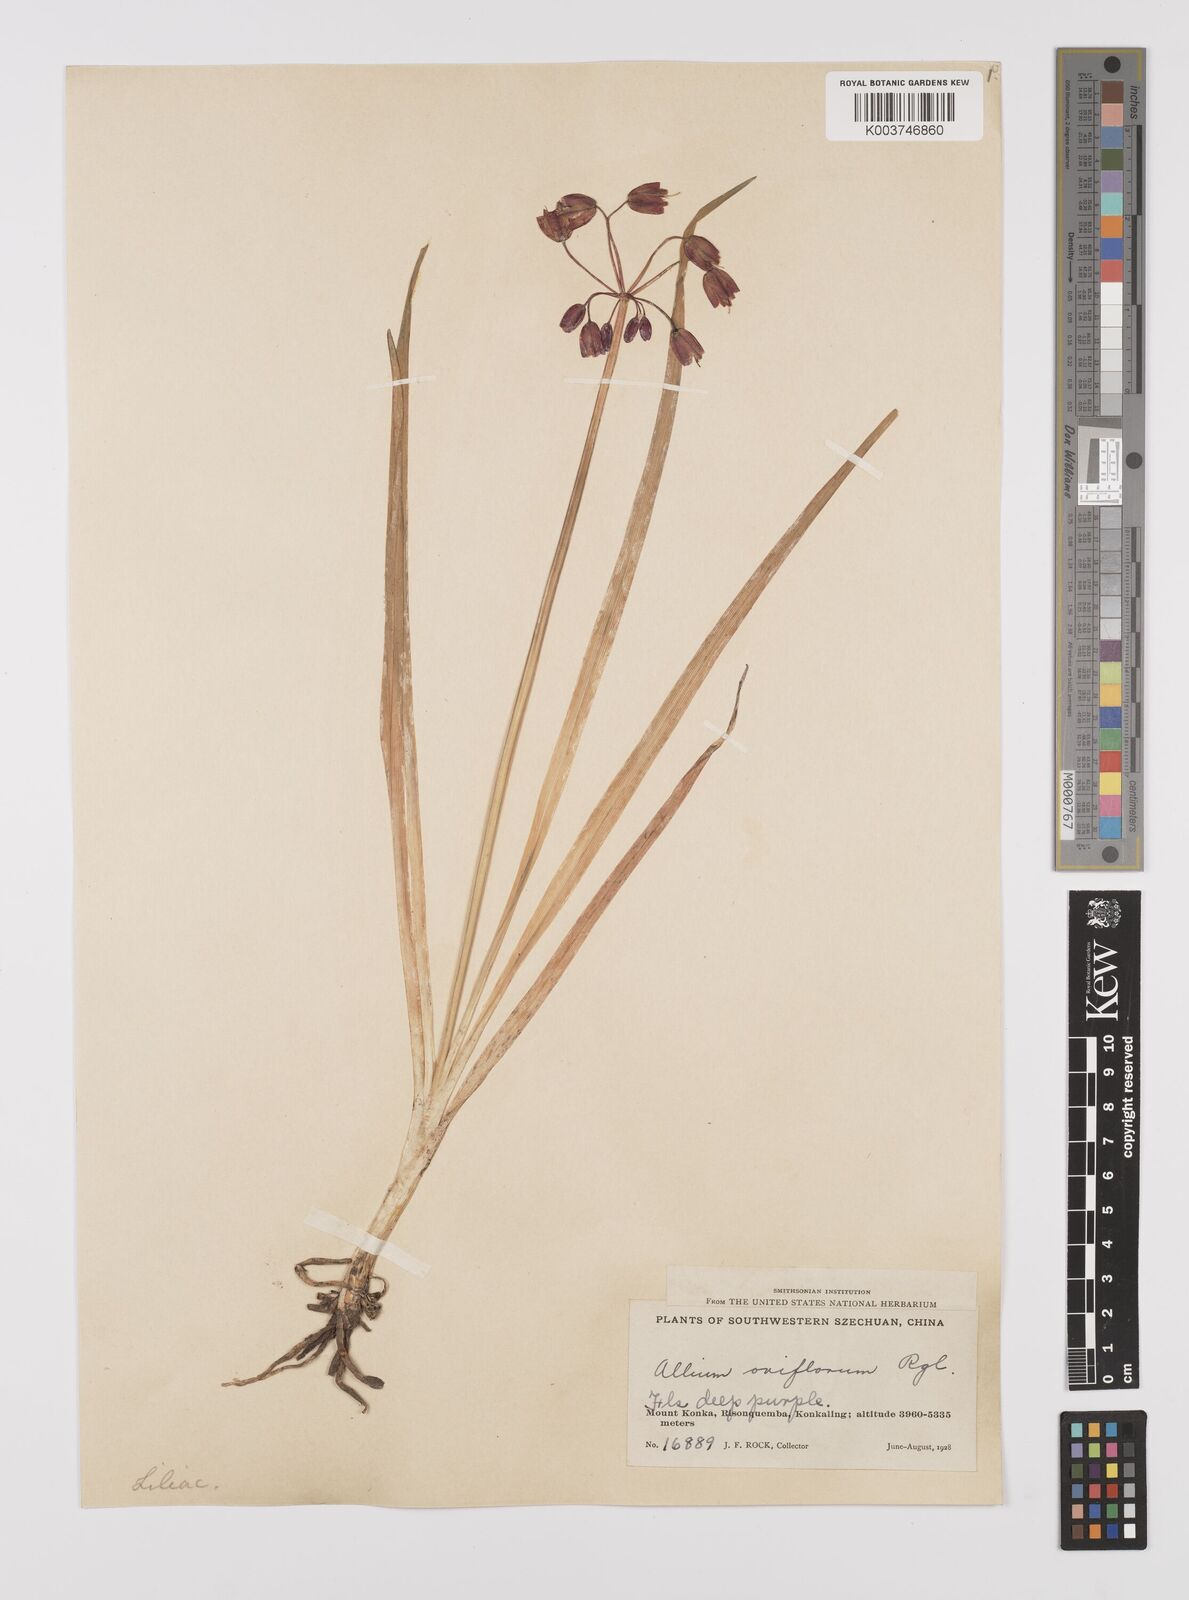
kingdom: Plantae
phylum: Tracheophyta
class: Liliopsida
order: Asparagales
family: Amaryllidaceae
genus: Allium
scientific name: Allium macranthum
